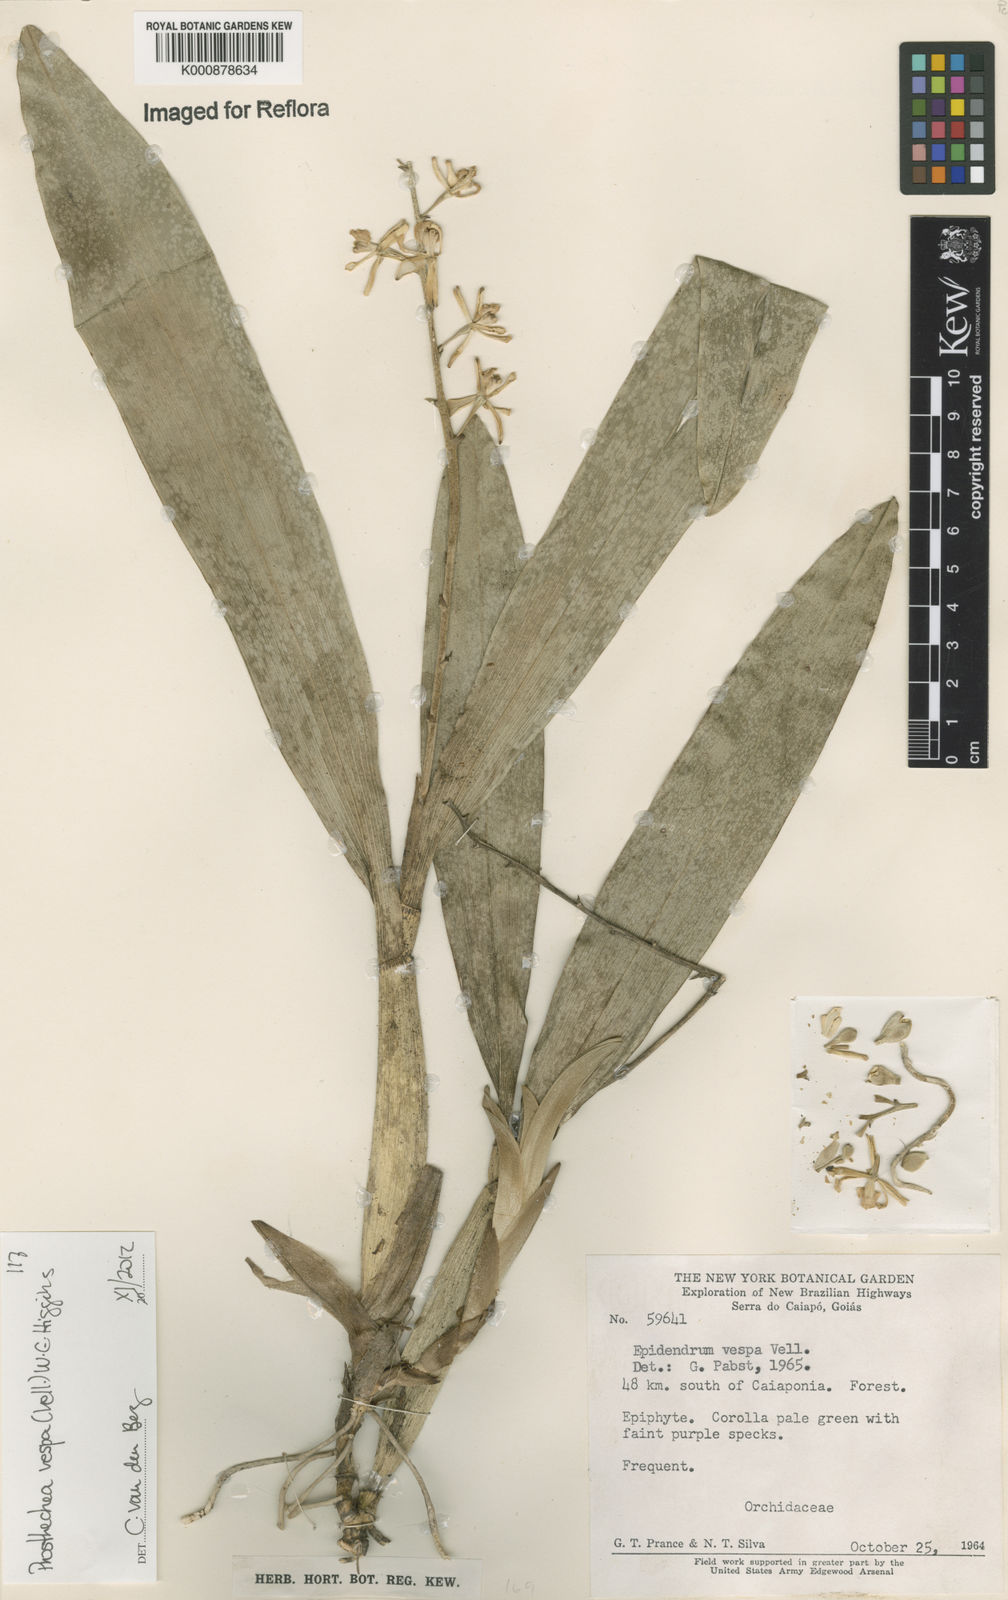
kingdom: Plantae
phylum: Tracheophyta
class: Liliopsida
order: Asparagales
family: Orchidaceae
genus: Prosthechea
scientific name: Prosthechea vespa
